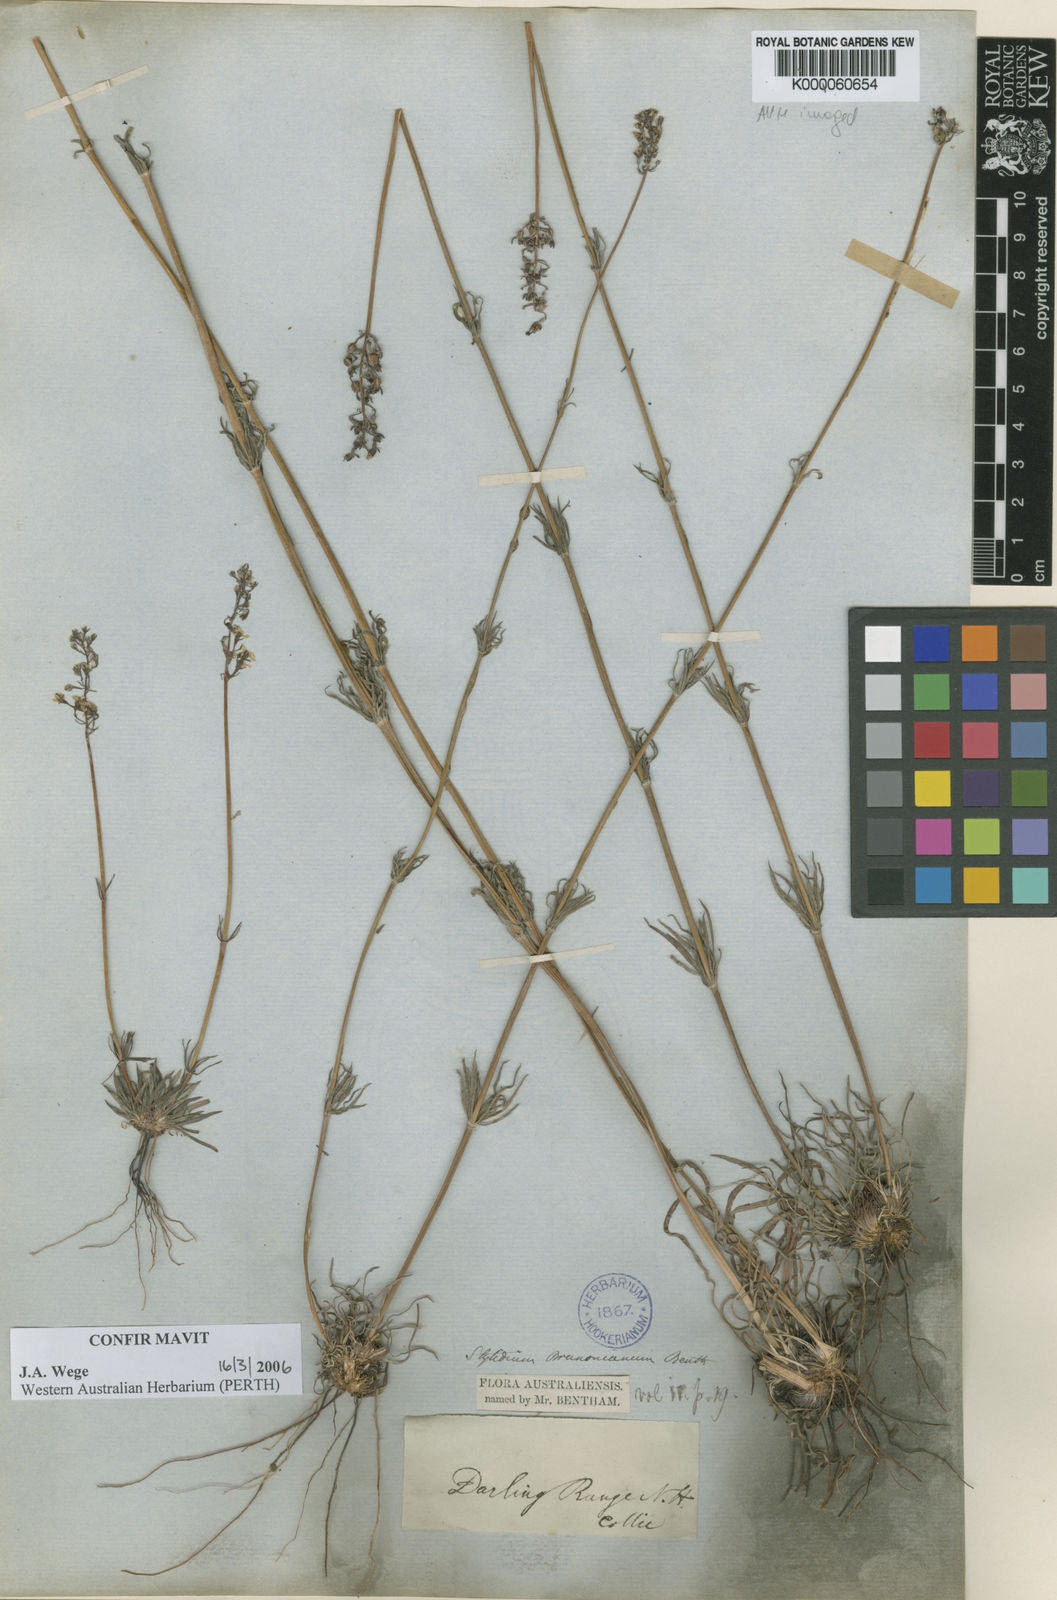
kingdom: Plantae
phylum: Tracheophyta
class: Magnoliopsida
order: Asterales
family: Stylidiaceae
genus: Stylidium
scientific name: Stylidium brunonianum
